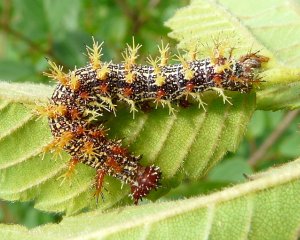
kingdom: Animalia
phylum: Arthropoda
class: Insecta
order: Lepidoptera
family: Nymphalidae
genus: Polygonia
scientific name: Polygonia interrogationis
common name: Question Mark
